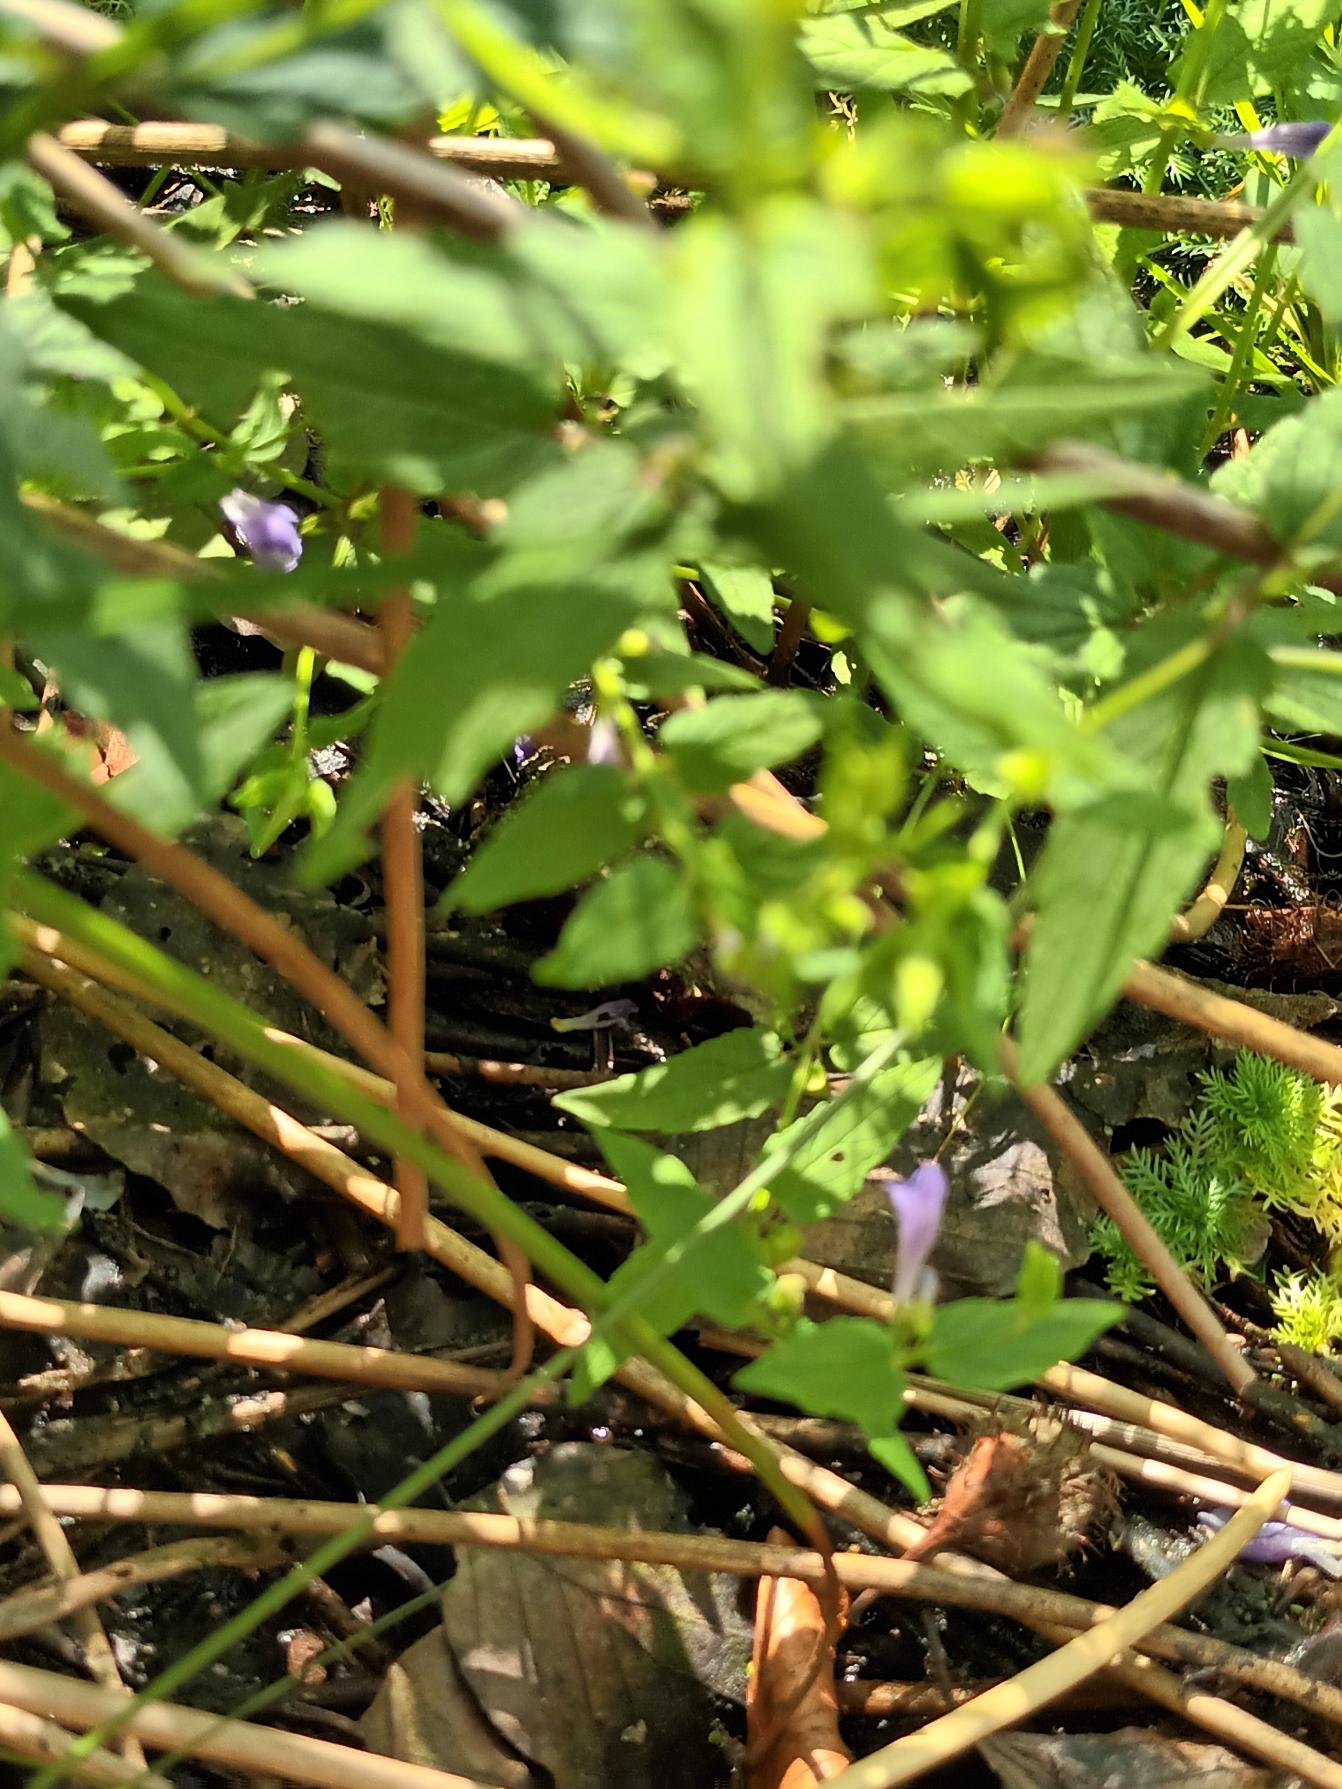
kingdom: Plantae
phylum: Tracheophyta
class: Magnoliopsida
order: Lamiales
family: Lamiaceae
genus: Scutellaria
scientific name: Scutellaria galericulata
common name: Almindelig skjolddrager
